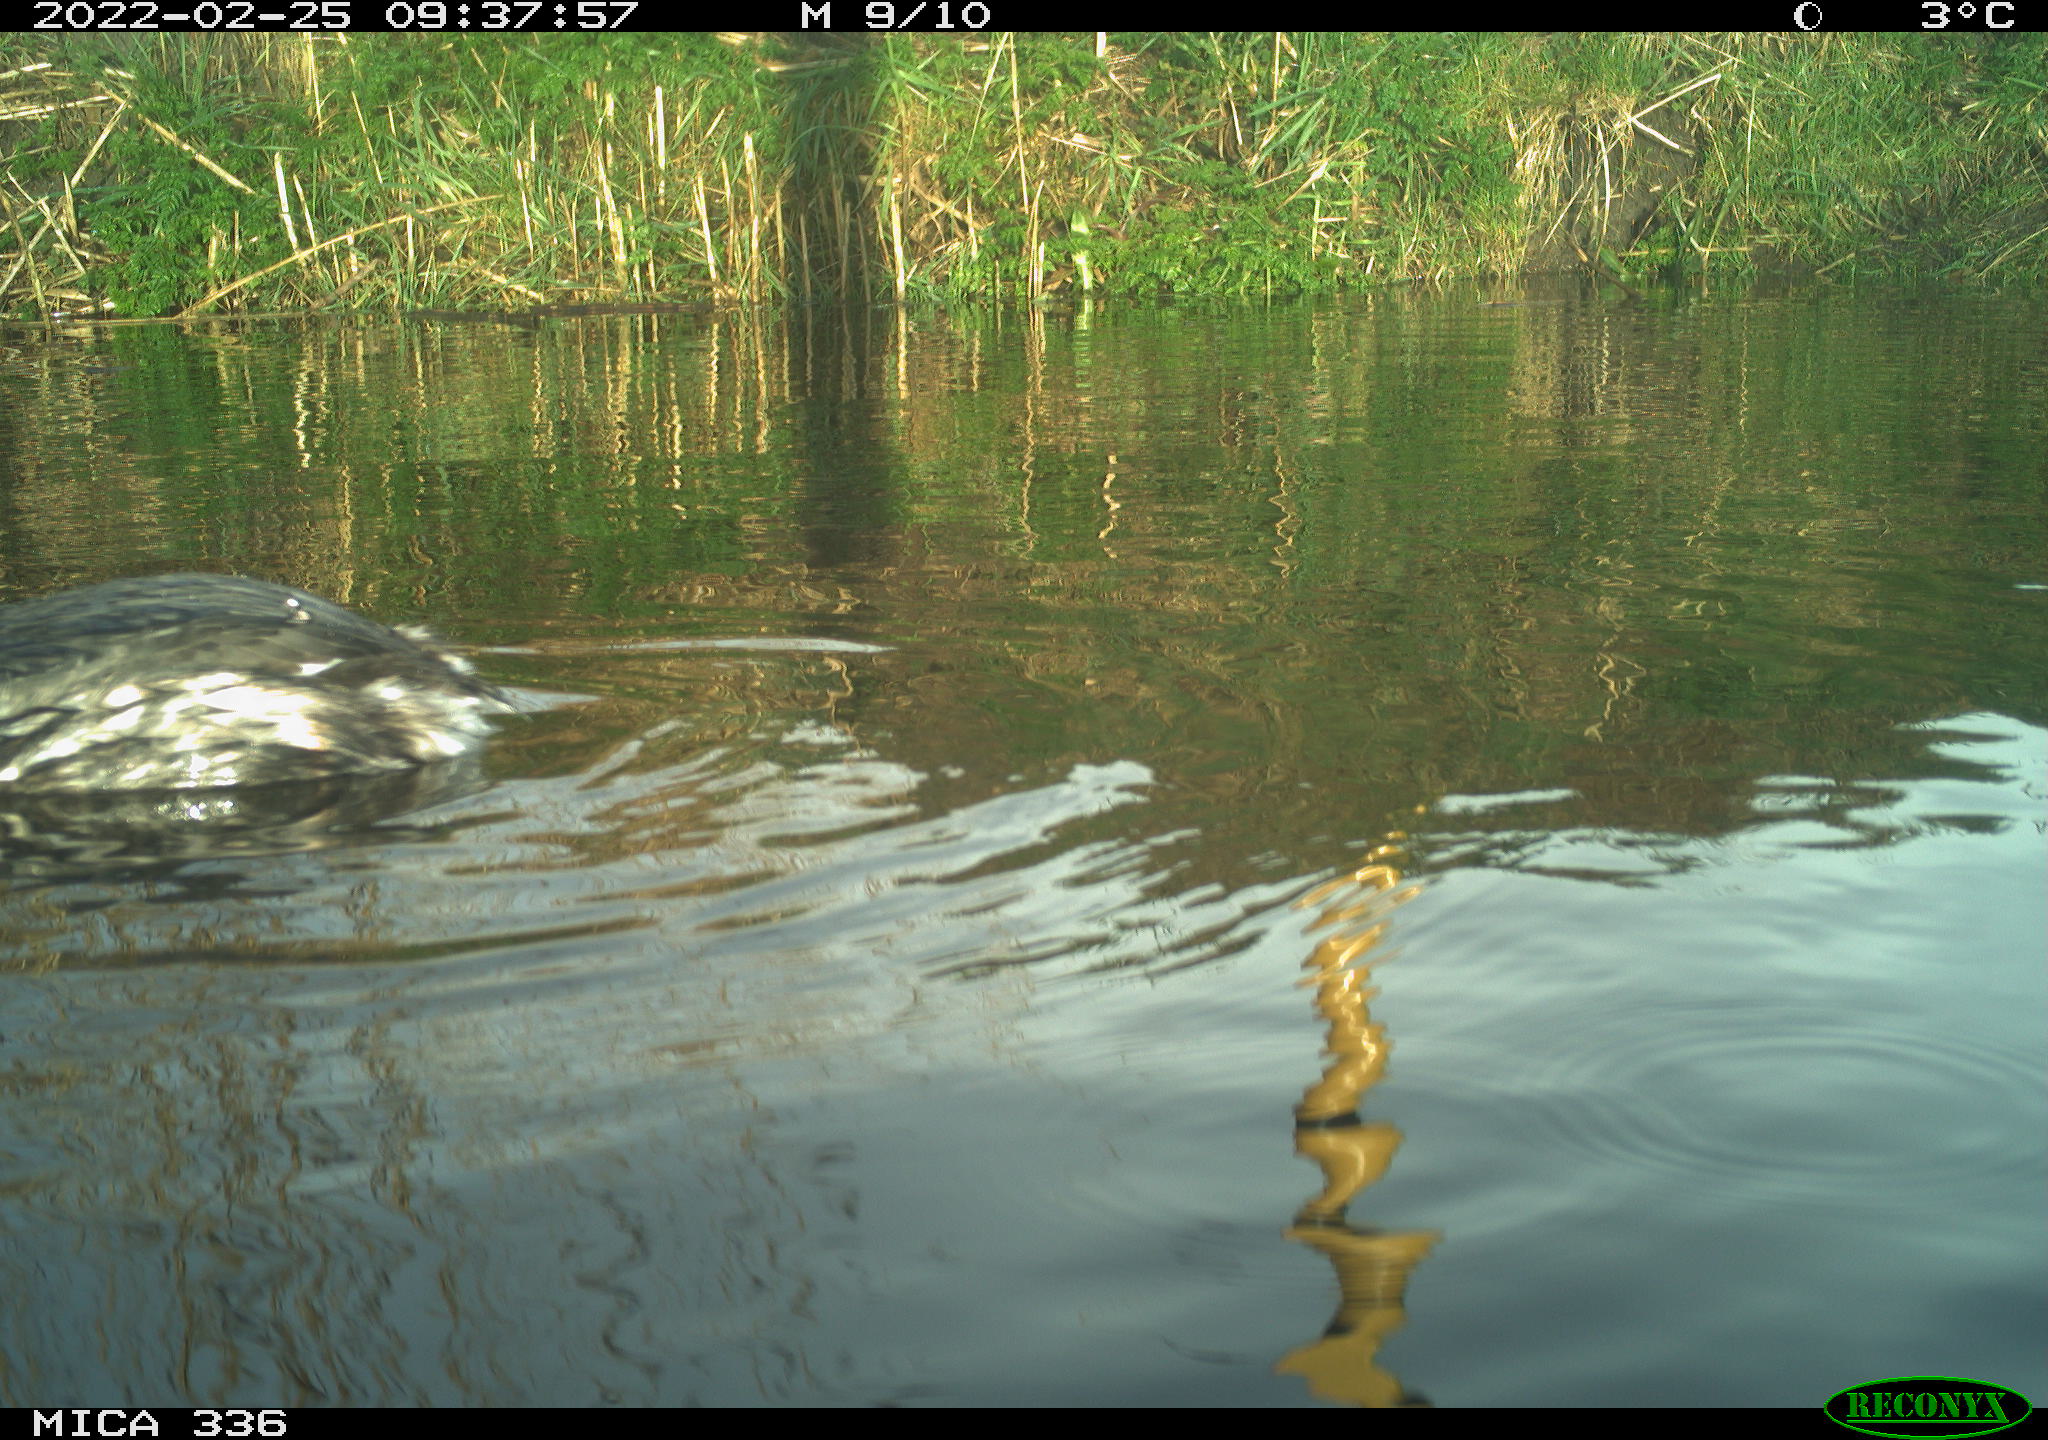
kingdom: Animalia
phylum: Chordata
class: Aves
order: Podicipediformes
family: Podicipedidae
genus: Podiceps
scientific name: Podiceps cristatus
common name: Great crested grebe
